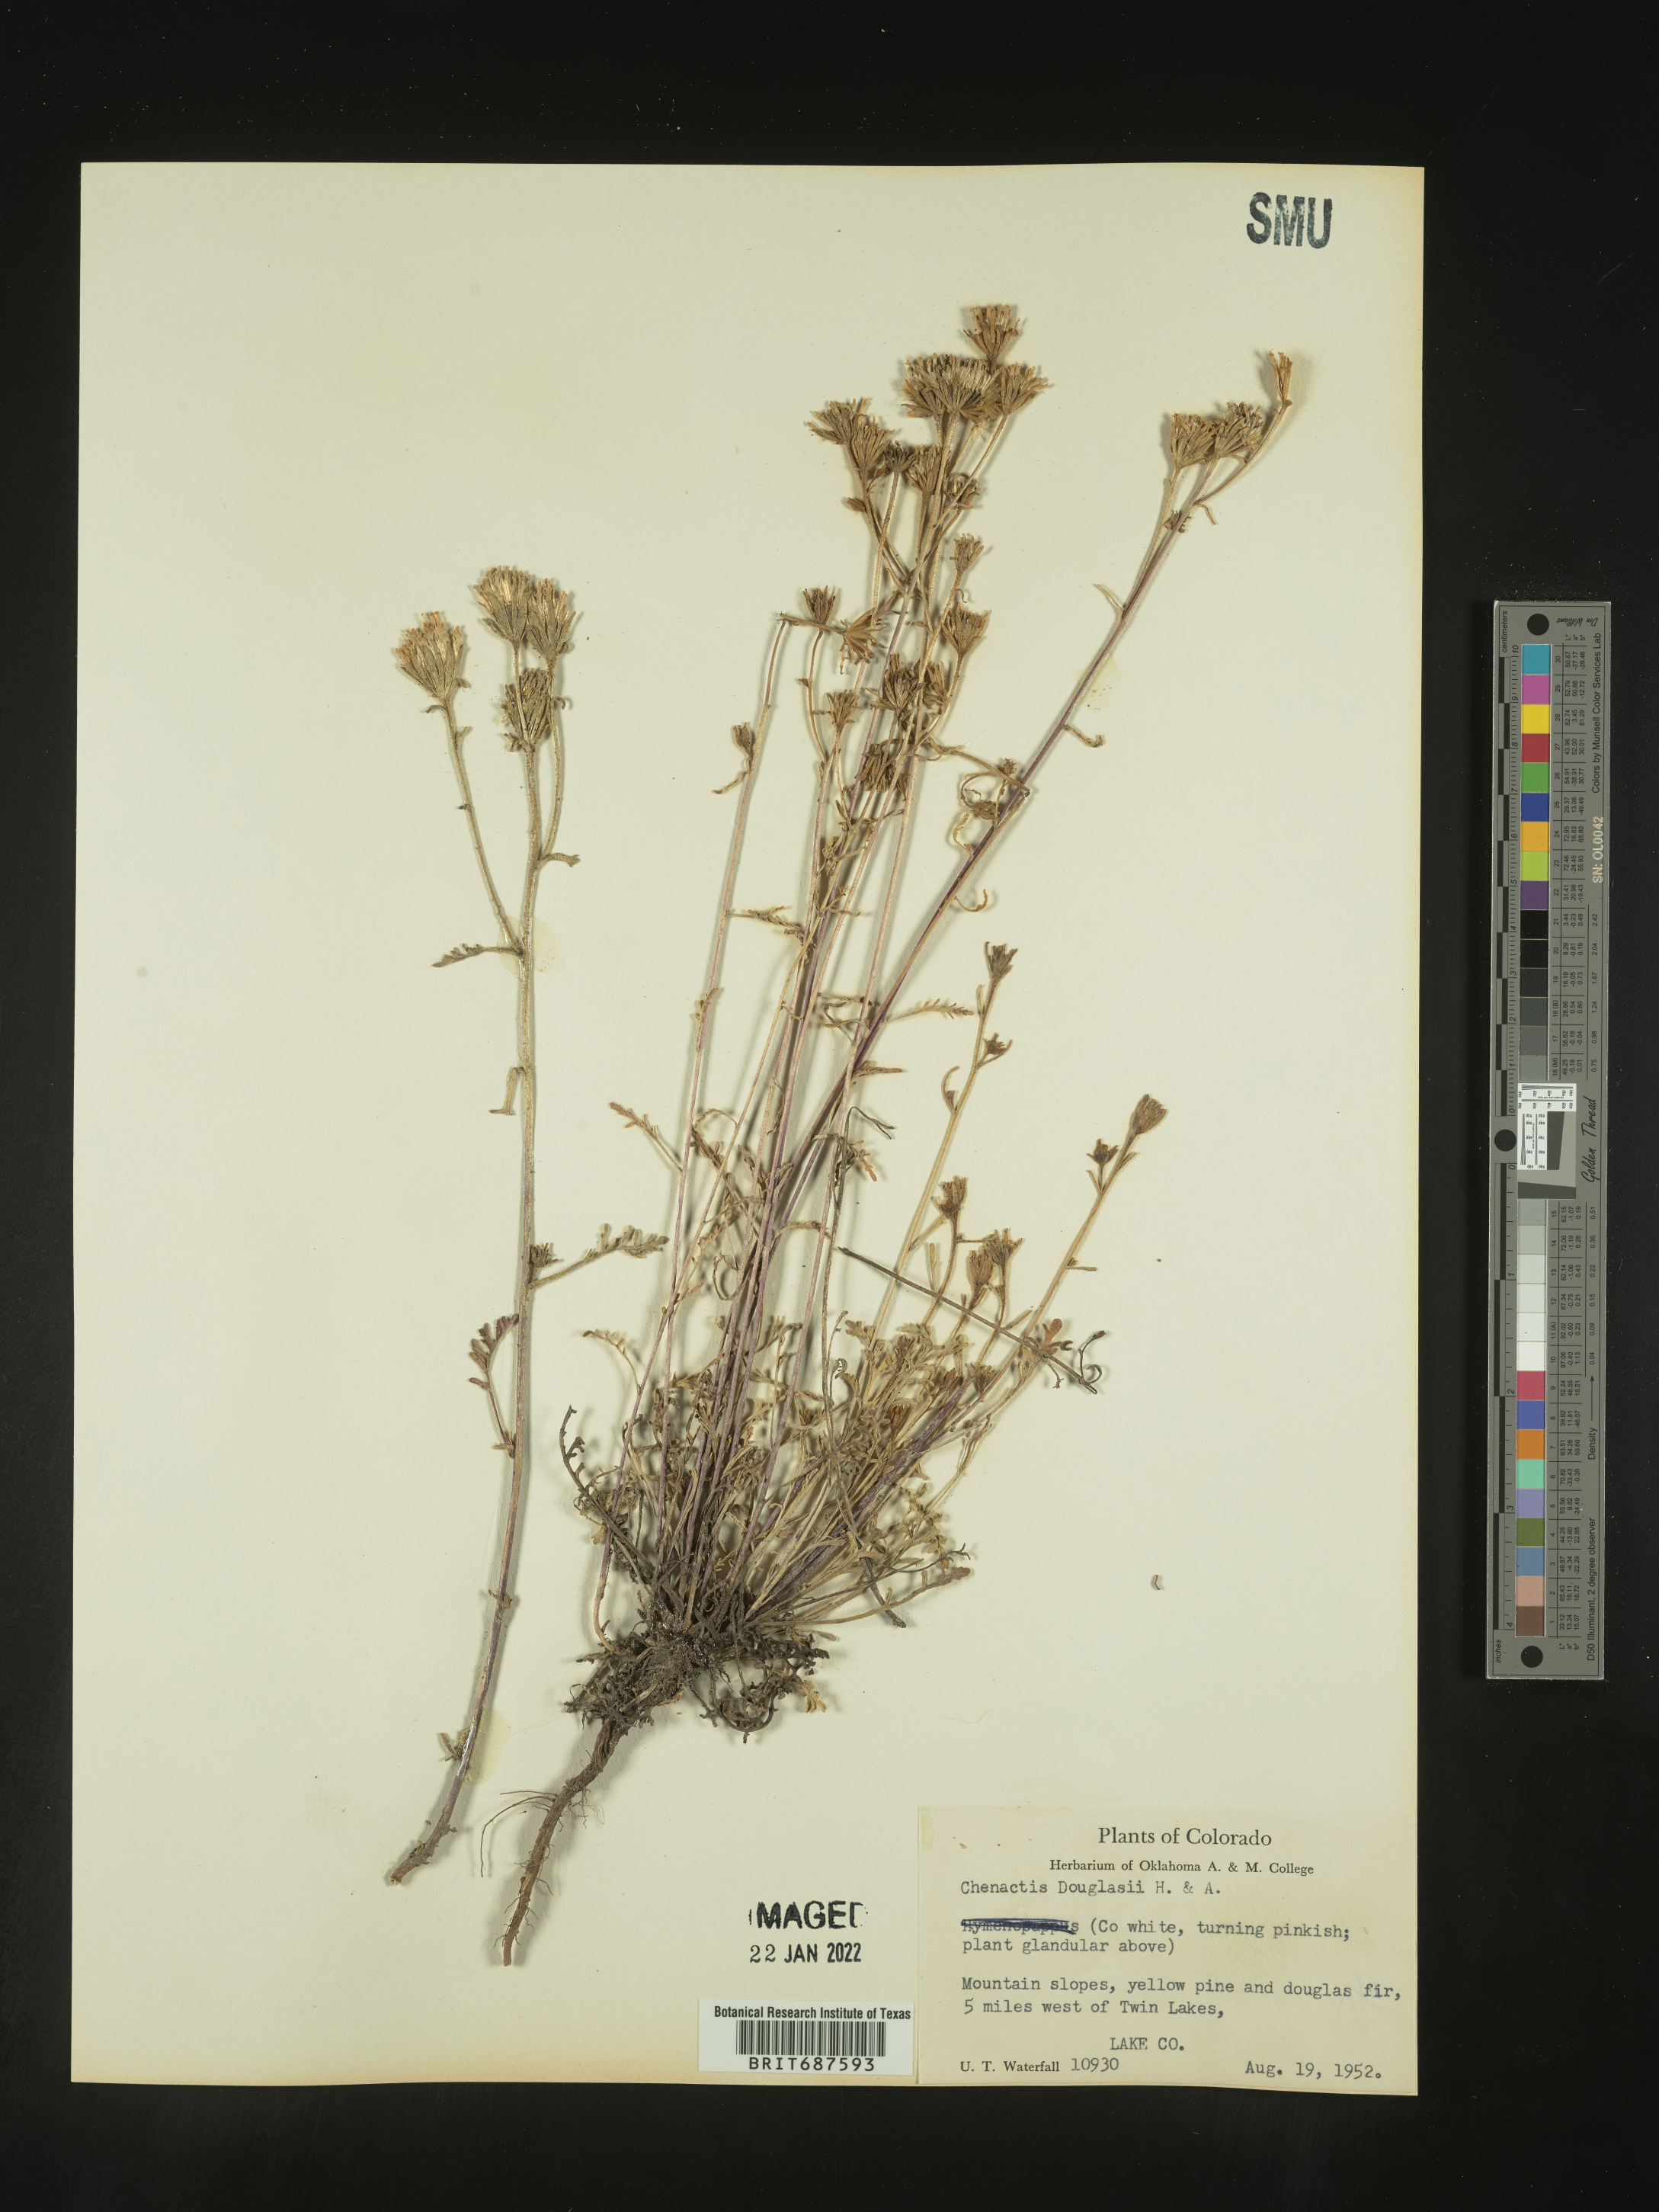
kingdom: Plantae
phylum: Tracheophyta
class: Magnoliopsida
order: Asterales
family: Asteraceae
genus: Chaenactis
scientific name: Chaenactis douglasii
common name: Hoary pincushion
